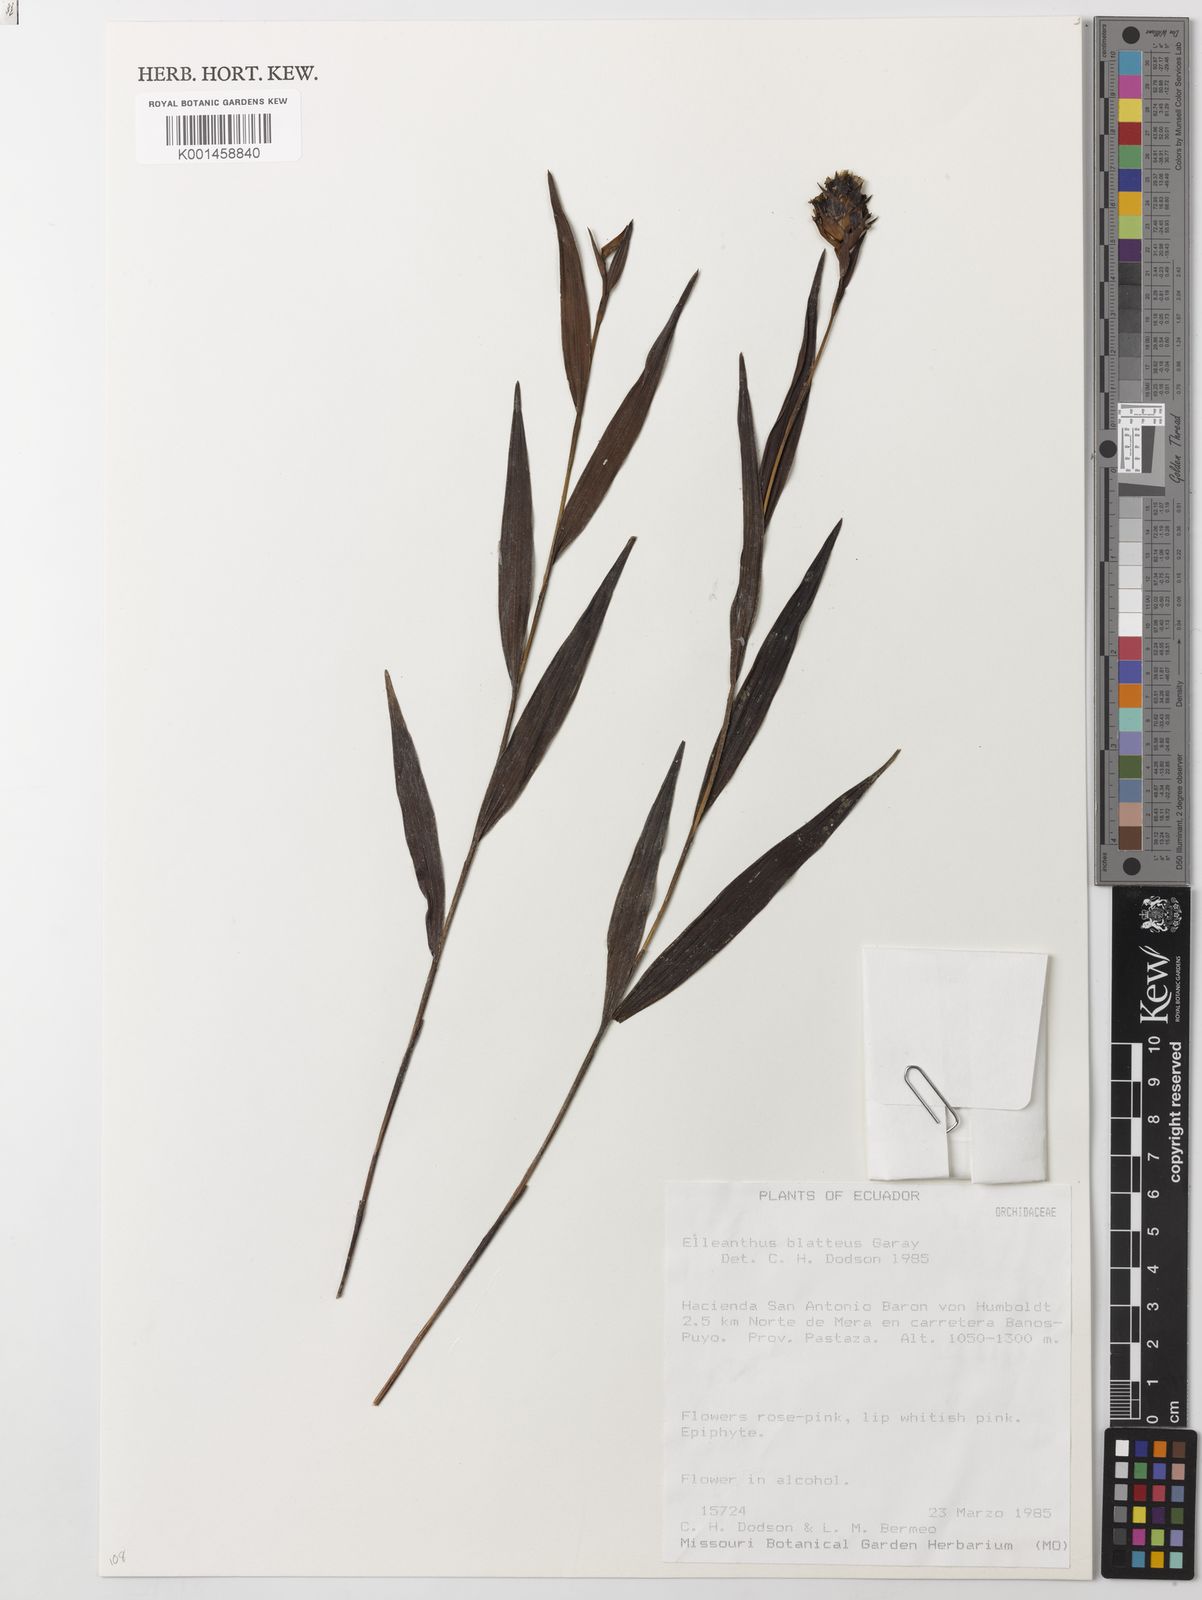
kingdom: Plantae
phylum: Tracheophyta
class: Liliopsida
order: Asparagales
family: Orchidaceae
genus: Elleanthus
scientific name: Elleanthus blatteus
